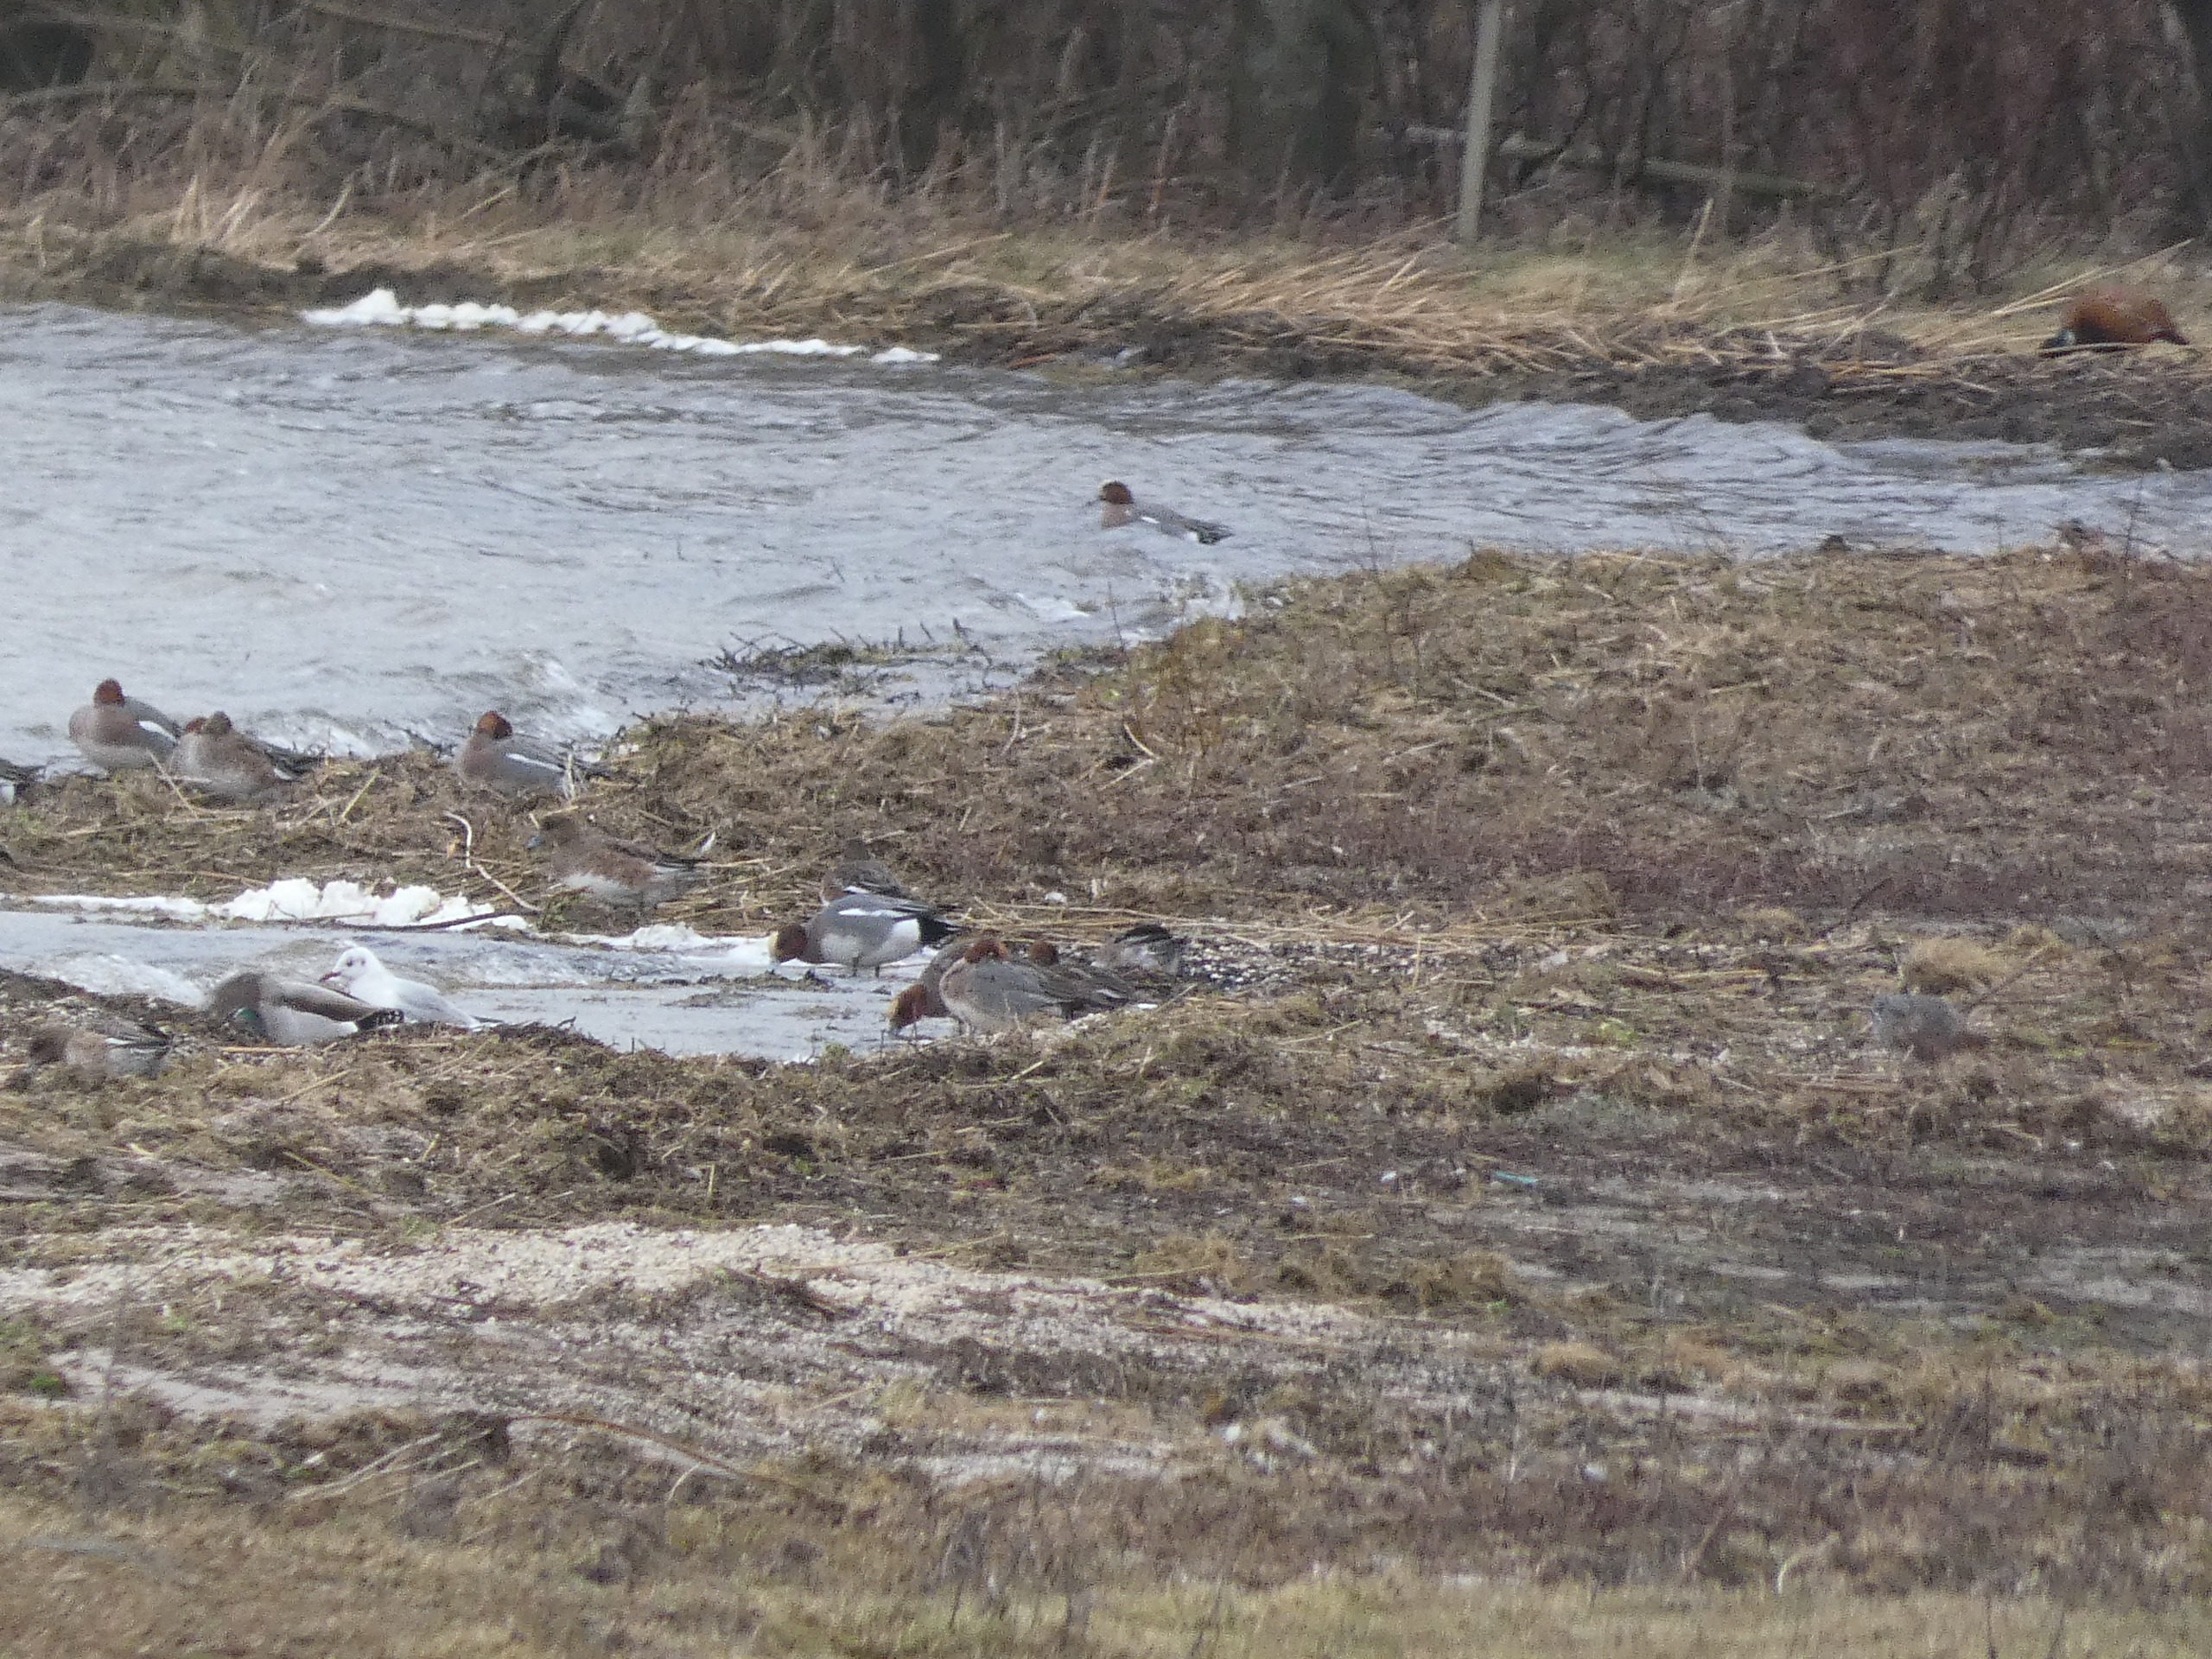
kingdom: Animalia
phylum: Chordata
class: Aves
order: Charadriiformes
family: Laridae
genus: Chroicocephalus
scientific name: Chroicocephalus ridibundus
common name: Hættemåge
